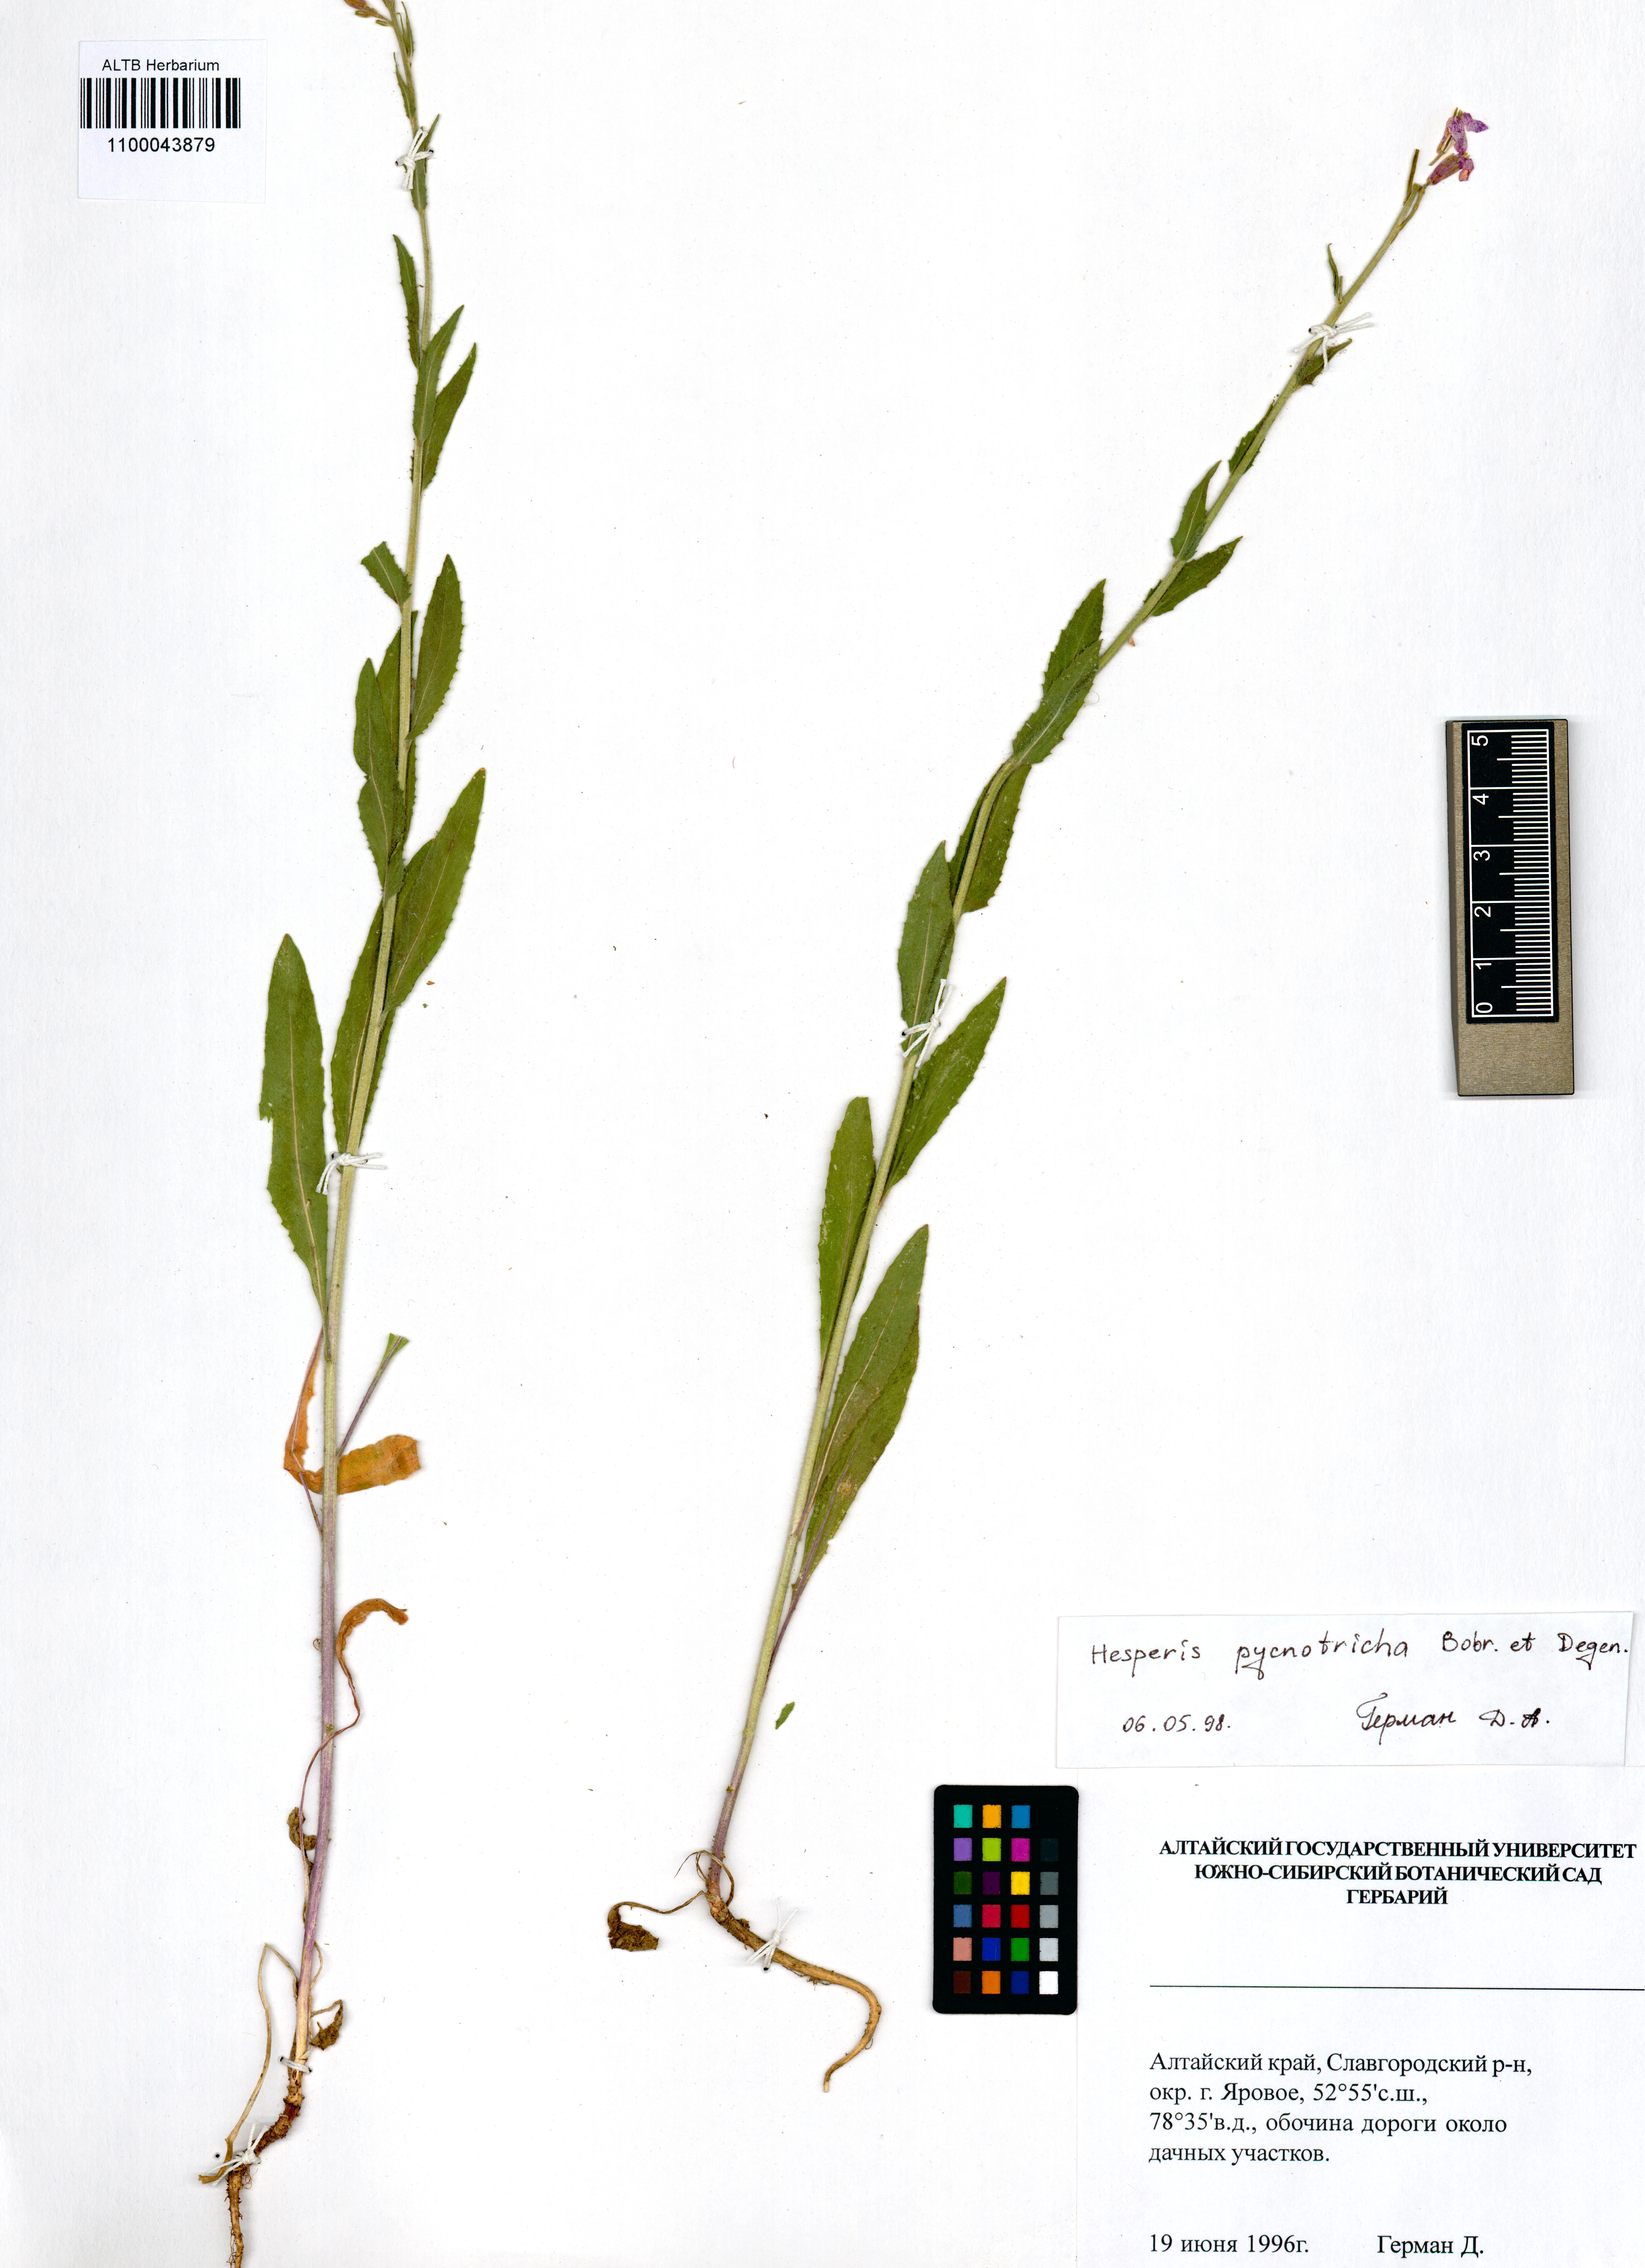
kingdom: Plantae
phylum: Tracheophyta
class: Magnoliopsida
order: Brassicales
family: Brassicaceae
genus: Hesperis
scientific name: Hesperis pycnotricha
